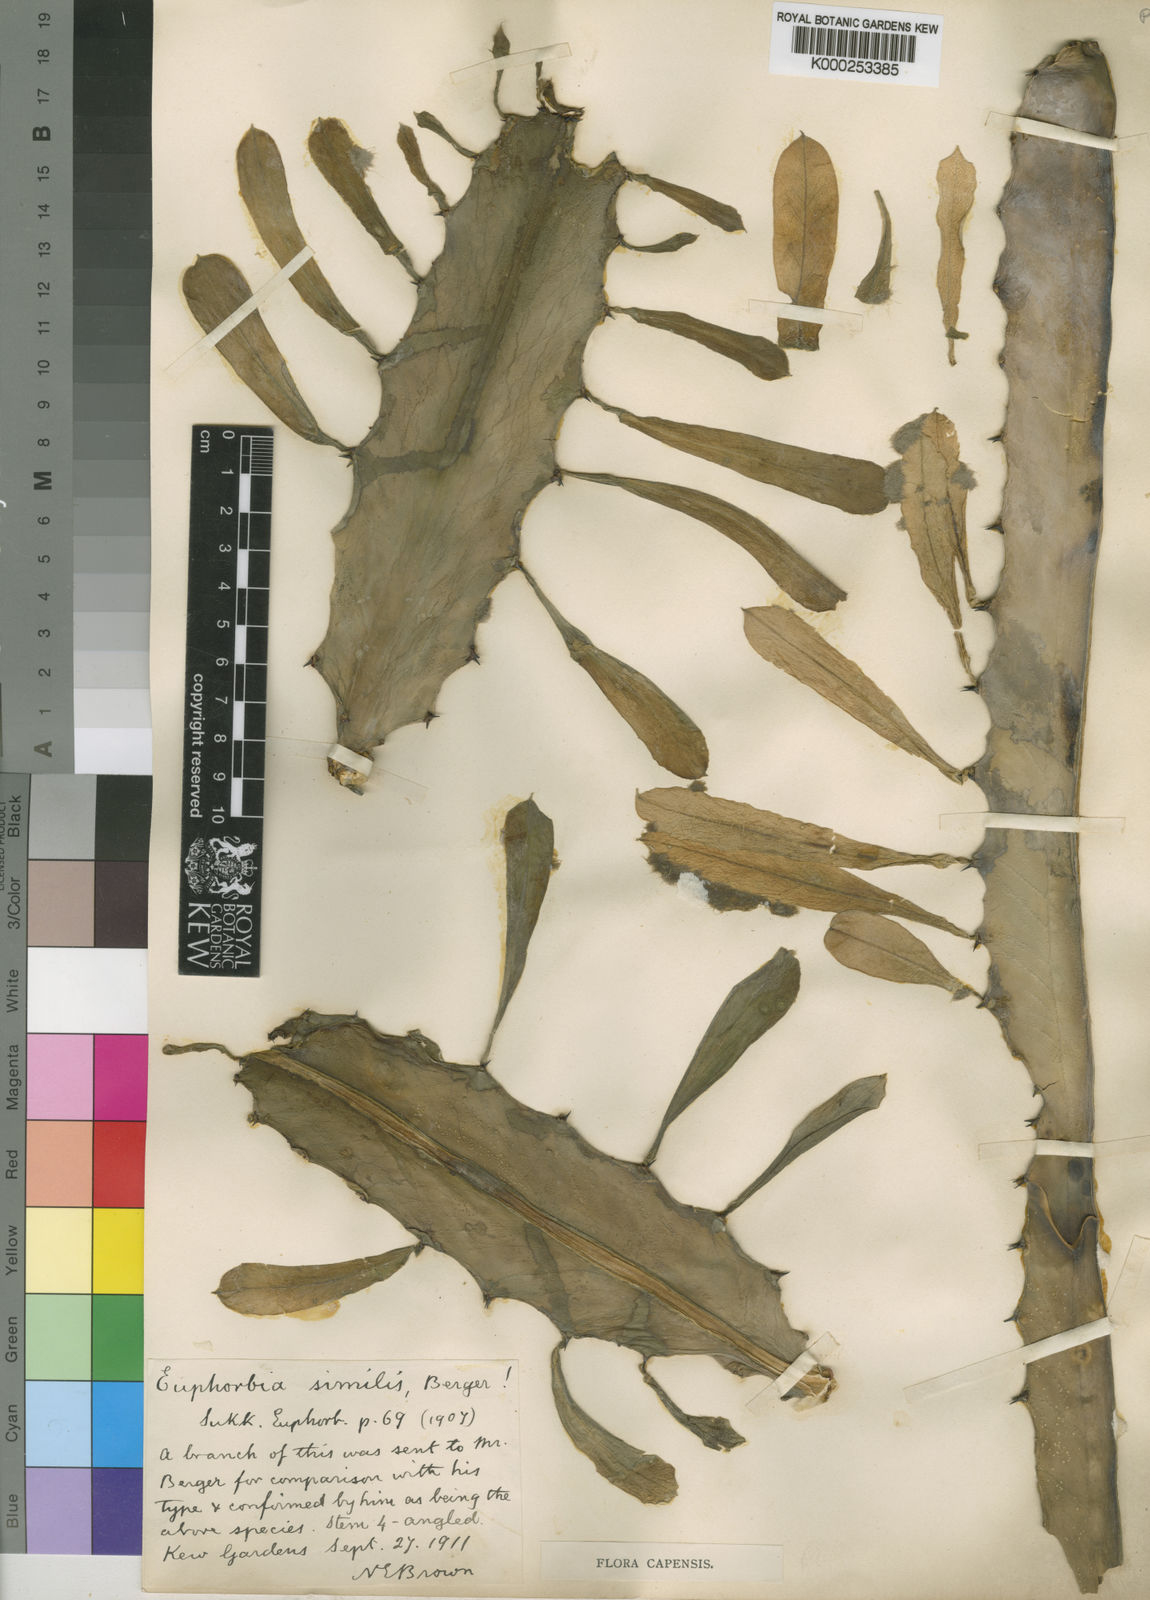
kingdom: Plantae
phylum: Tracheophyta
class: Magnoliopsida
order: Malpighiales
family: Euphorbiaceae
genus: Euphorbia
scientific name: Euphorbia
